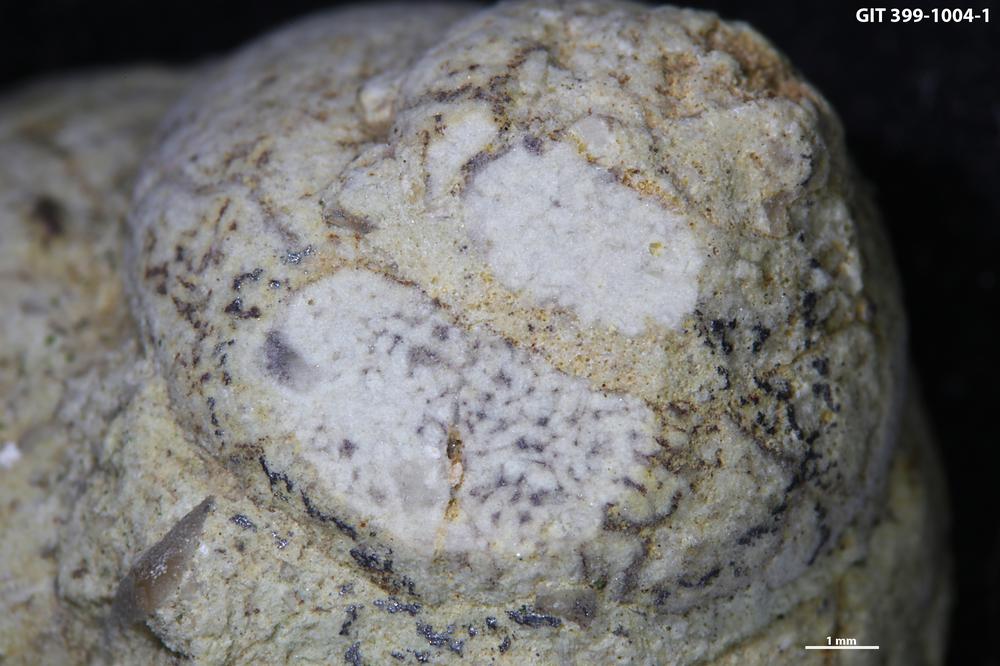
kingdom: Animalia
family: Coprulidae
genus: Coprulus
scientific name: Coprulus
